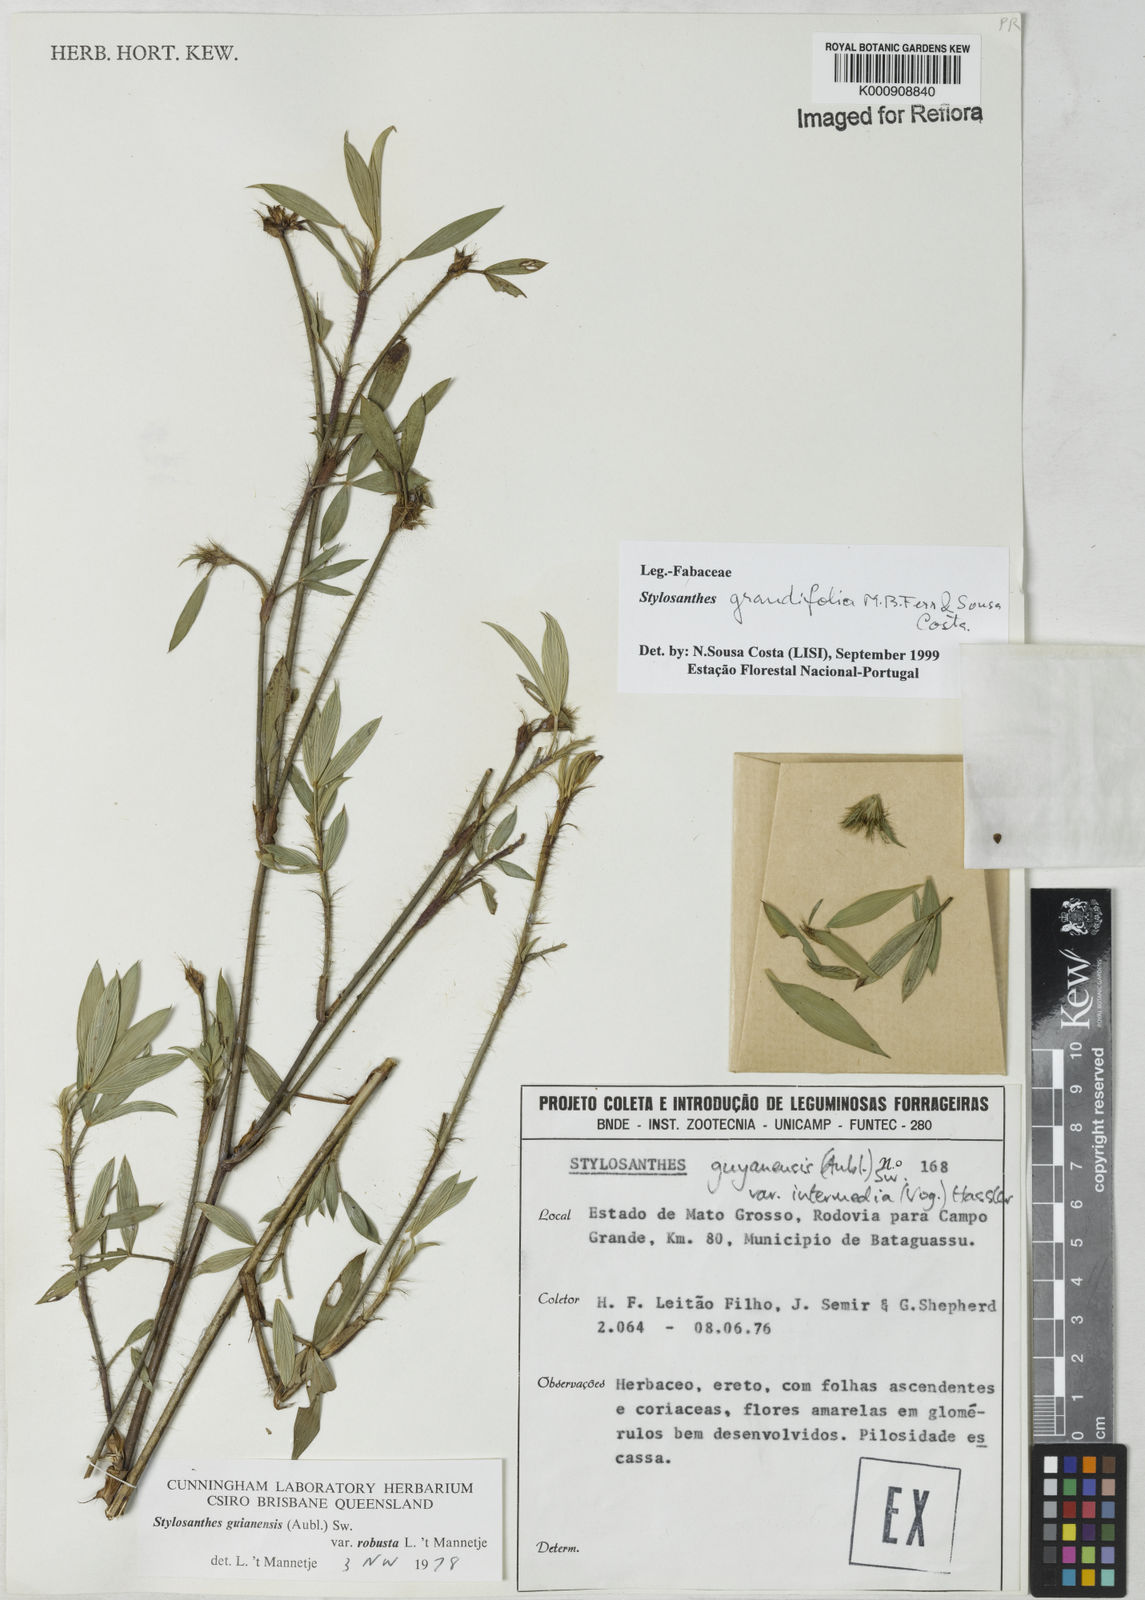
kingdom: Plantae
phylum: Tracheophyta
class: Magnoliopsida
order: Fabales
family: Fabaceae
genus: Stylosanthes
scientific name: Stylosanthes guianensis
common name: Pencil flower
